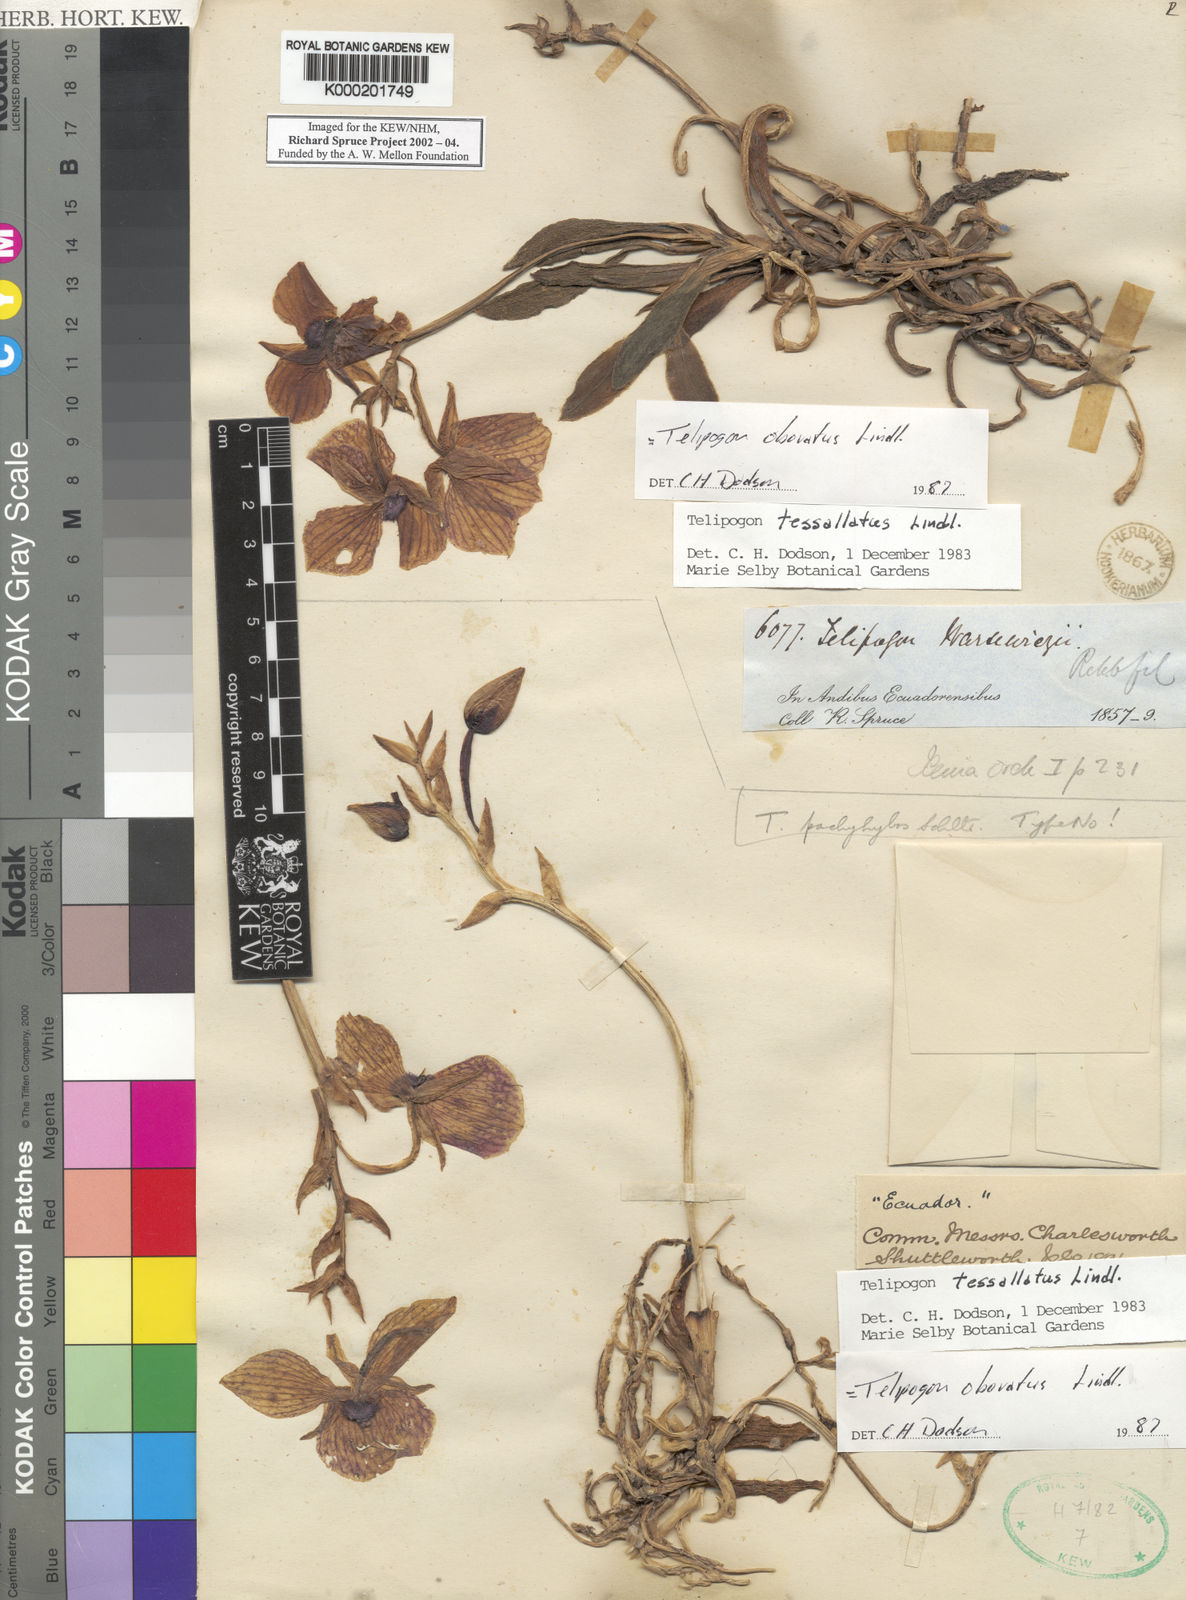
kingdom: Plantae
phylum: Tracheophyta
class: Liliopsida
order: Asparagales
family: Orchidaceae
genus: Telipogon
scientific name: Telipogon obovatus
